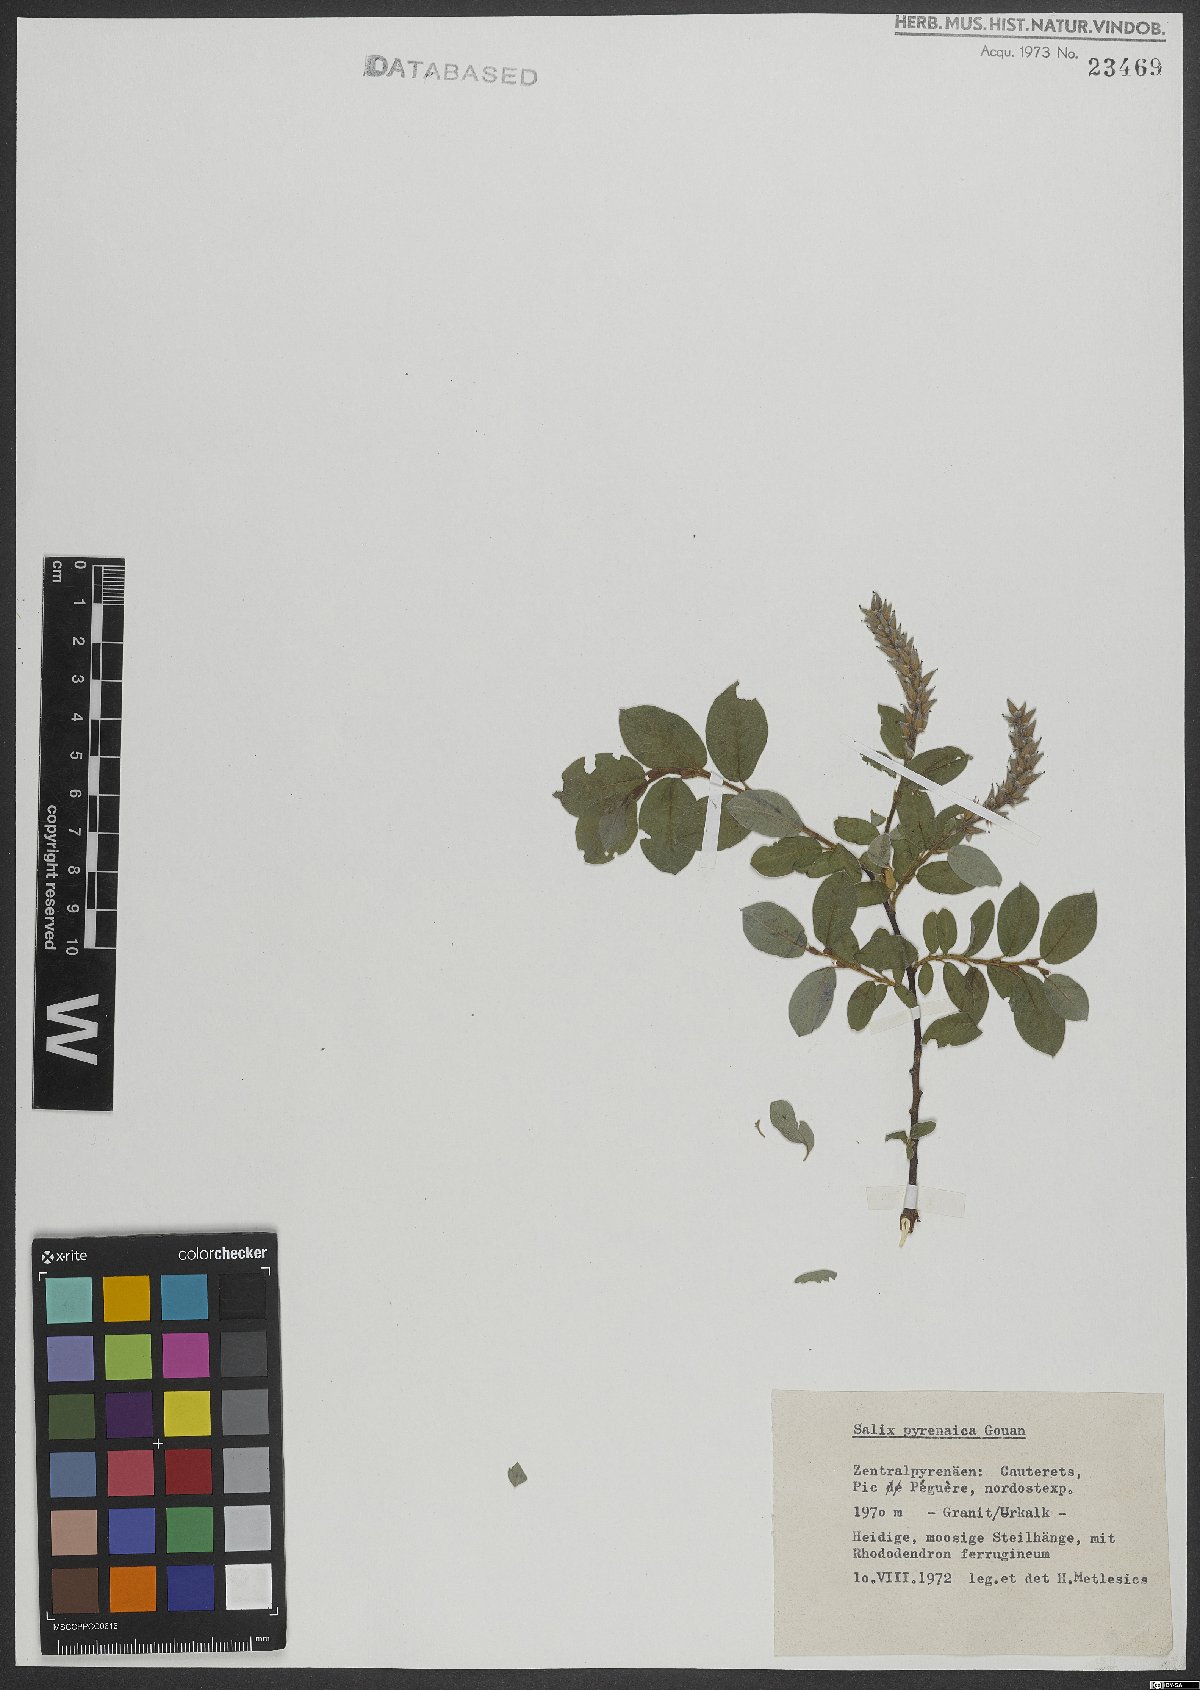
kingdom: Plantae
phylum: Tracheophyta
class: Magnoliopsida
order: Malpighiales
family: Salicaceae
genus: Salix
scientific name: Salix pyrenaica
